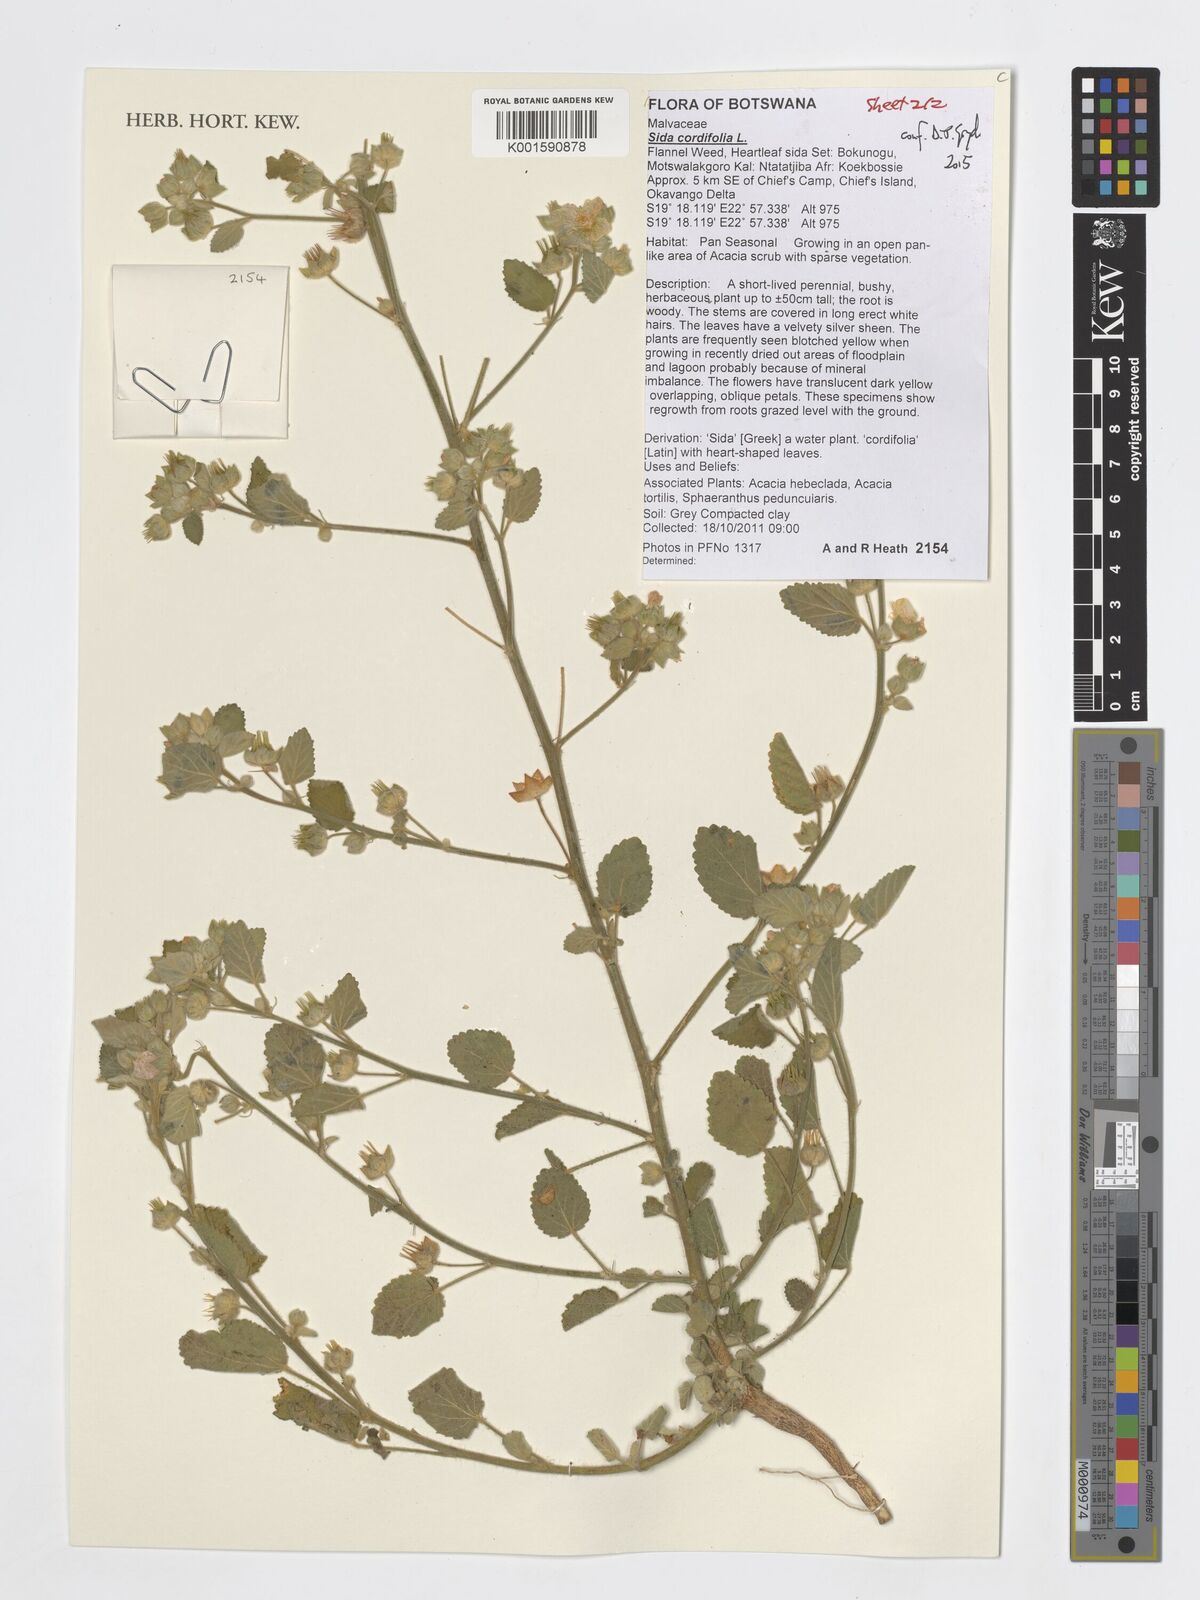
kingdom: Plantae
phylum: Tracheophyta
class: Magnoliopsida
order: Malvales
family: Malvaceae
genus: Sida
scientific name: Sida cordifolia
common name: Ilima
